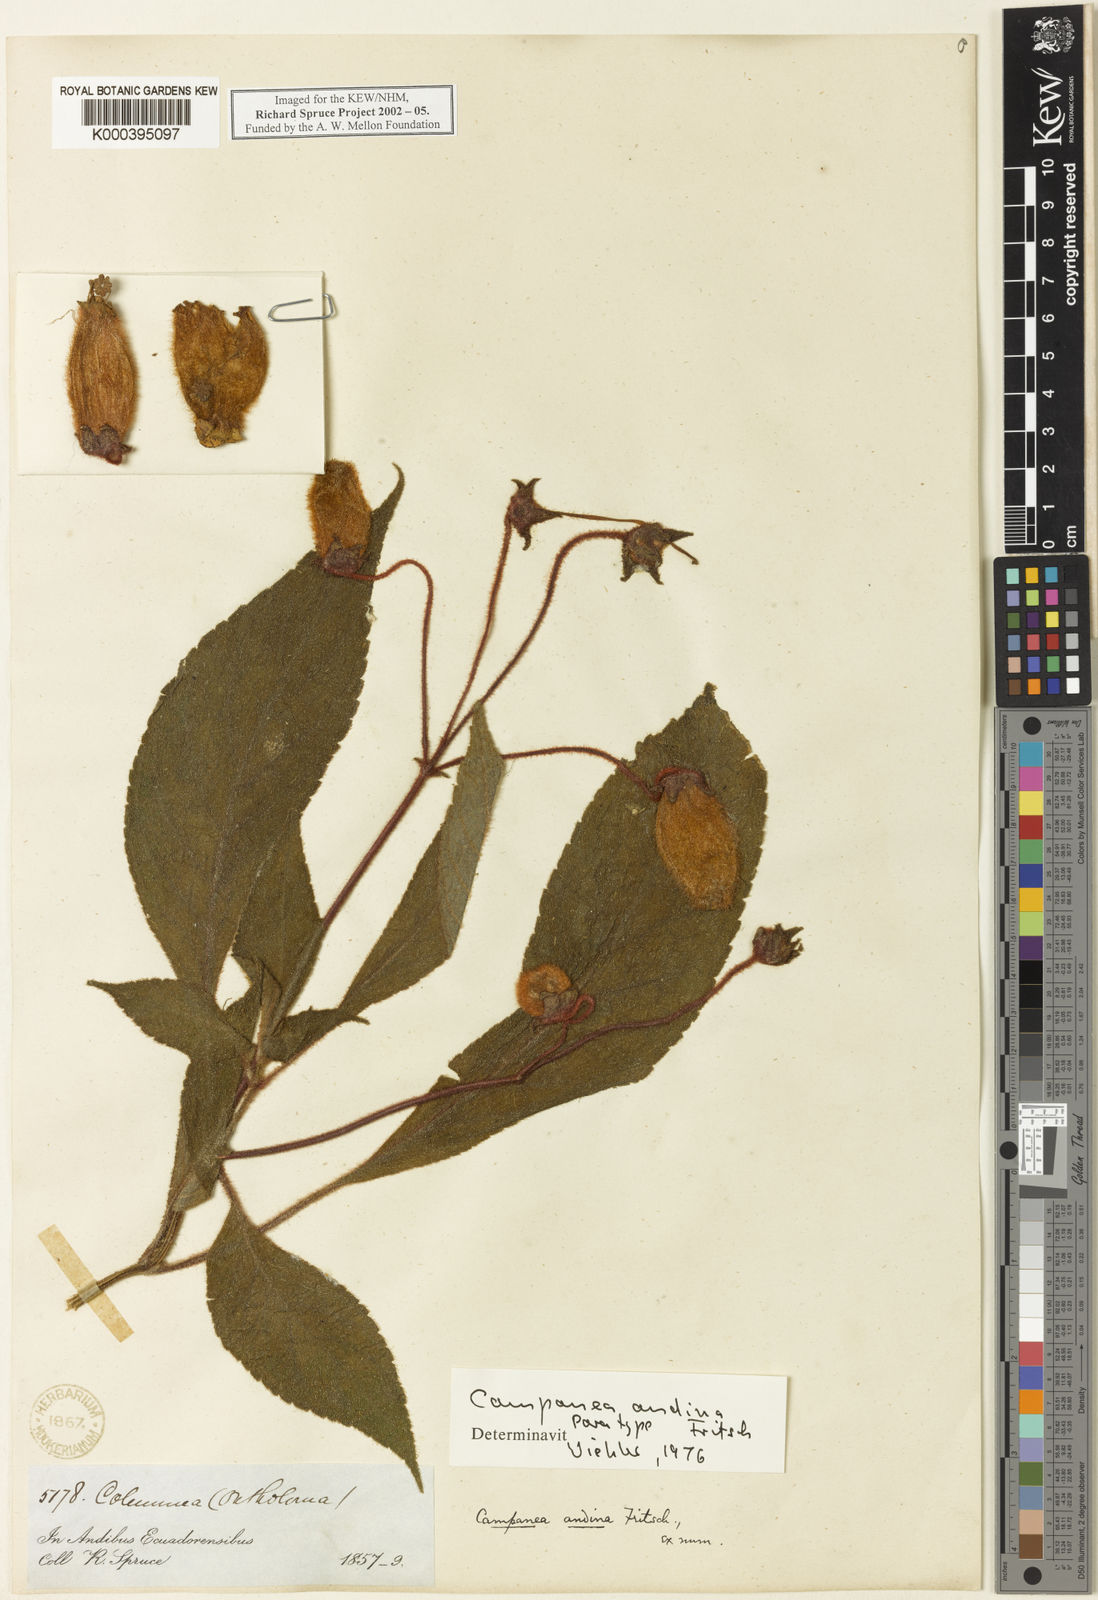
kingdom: Plantae
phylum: Tracheophyta
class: Magnoliopsida
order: Lamiales
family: Gesneriaceae
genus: Kohleria
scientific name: Kohleria andina
